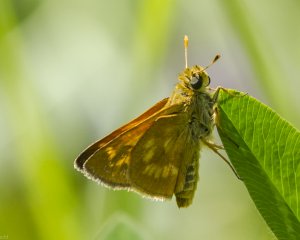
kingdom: Animalia
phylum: Arthropoda
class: Insecta
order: Lepidoptera
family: Hesperiidae
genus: Polites
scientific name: Polites
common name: Long Dash Skipper
